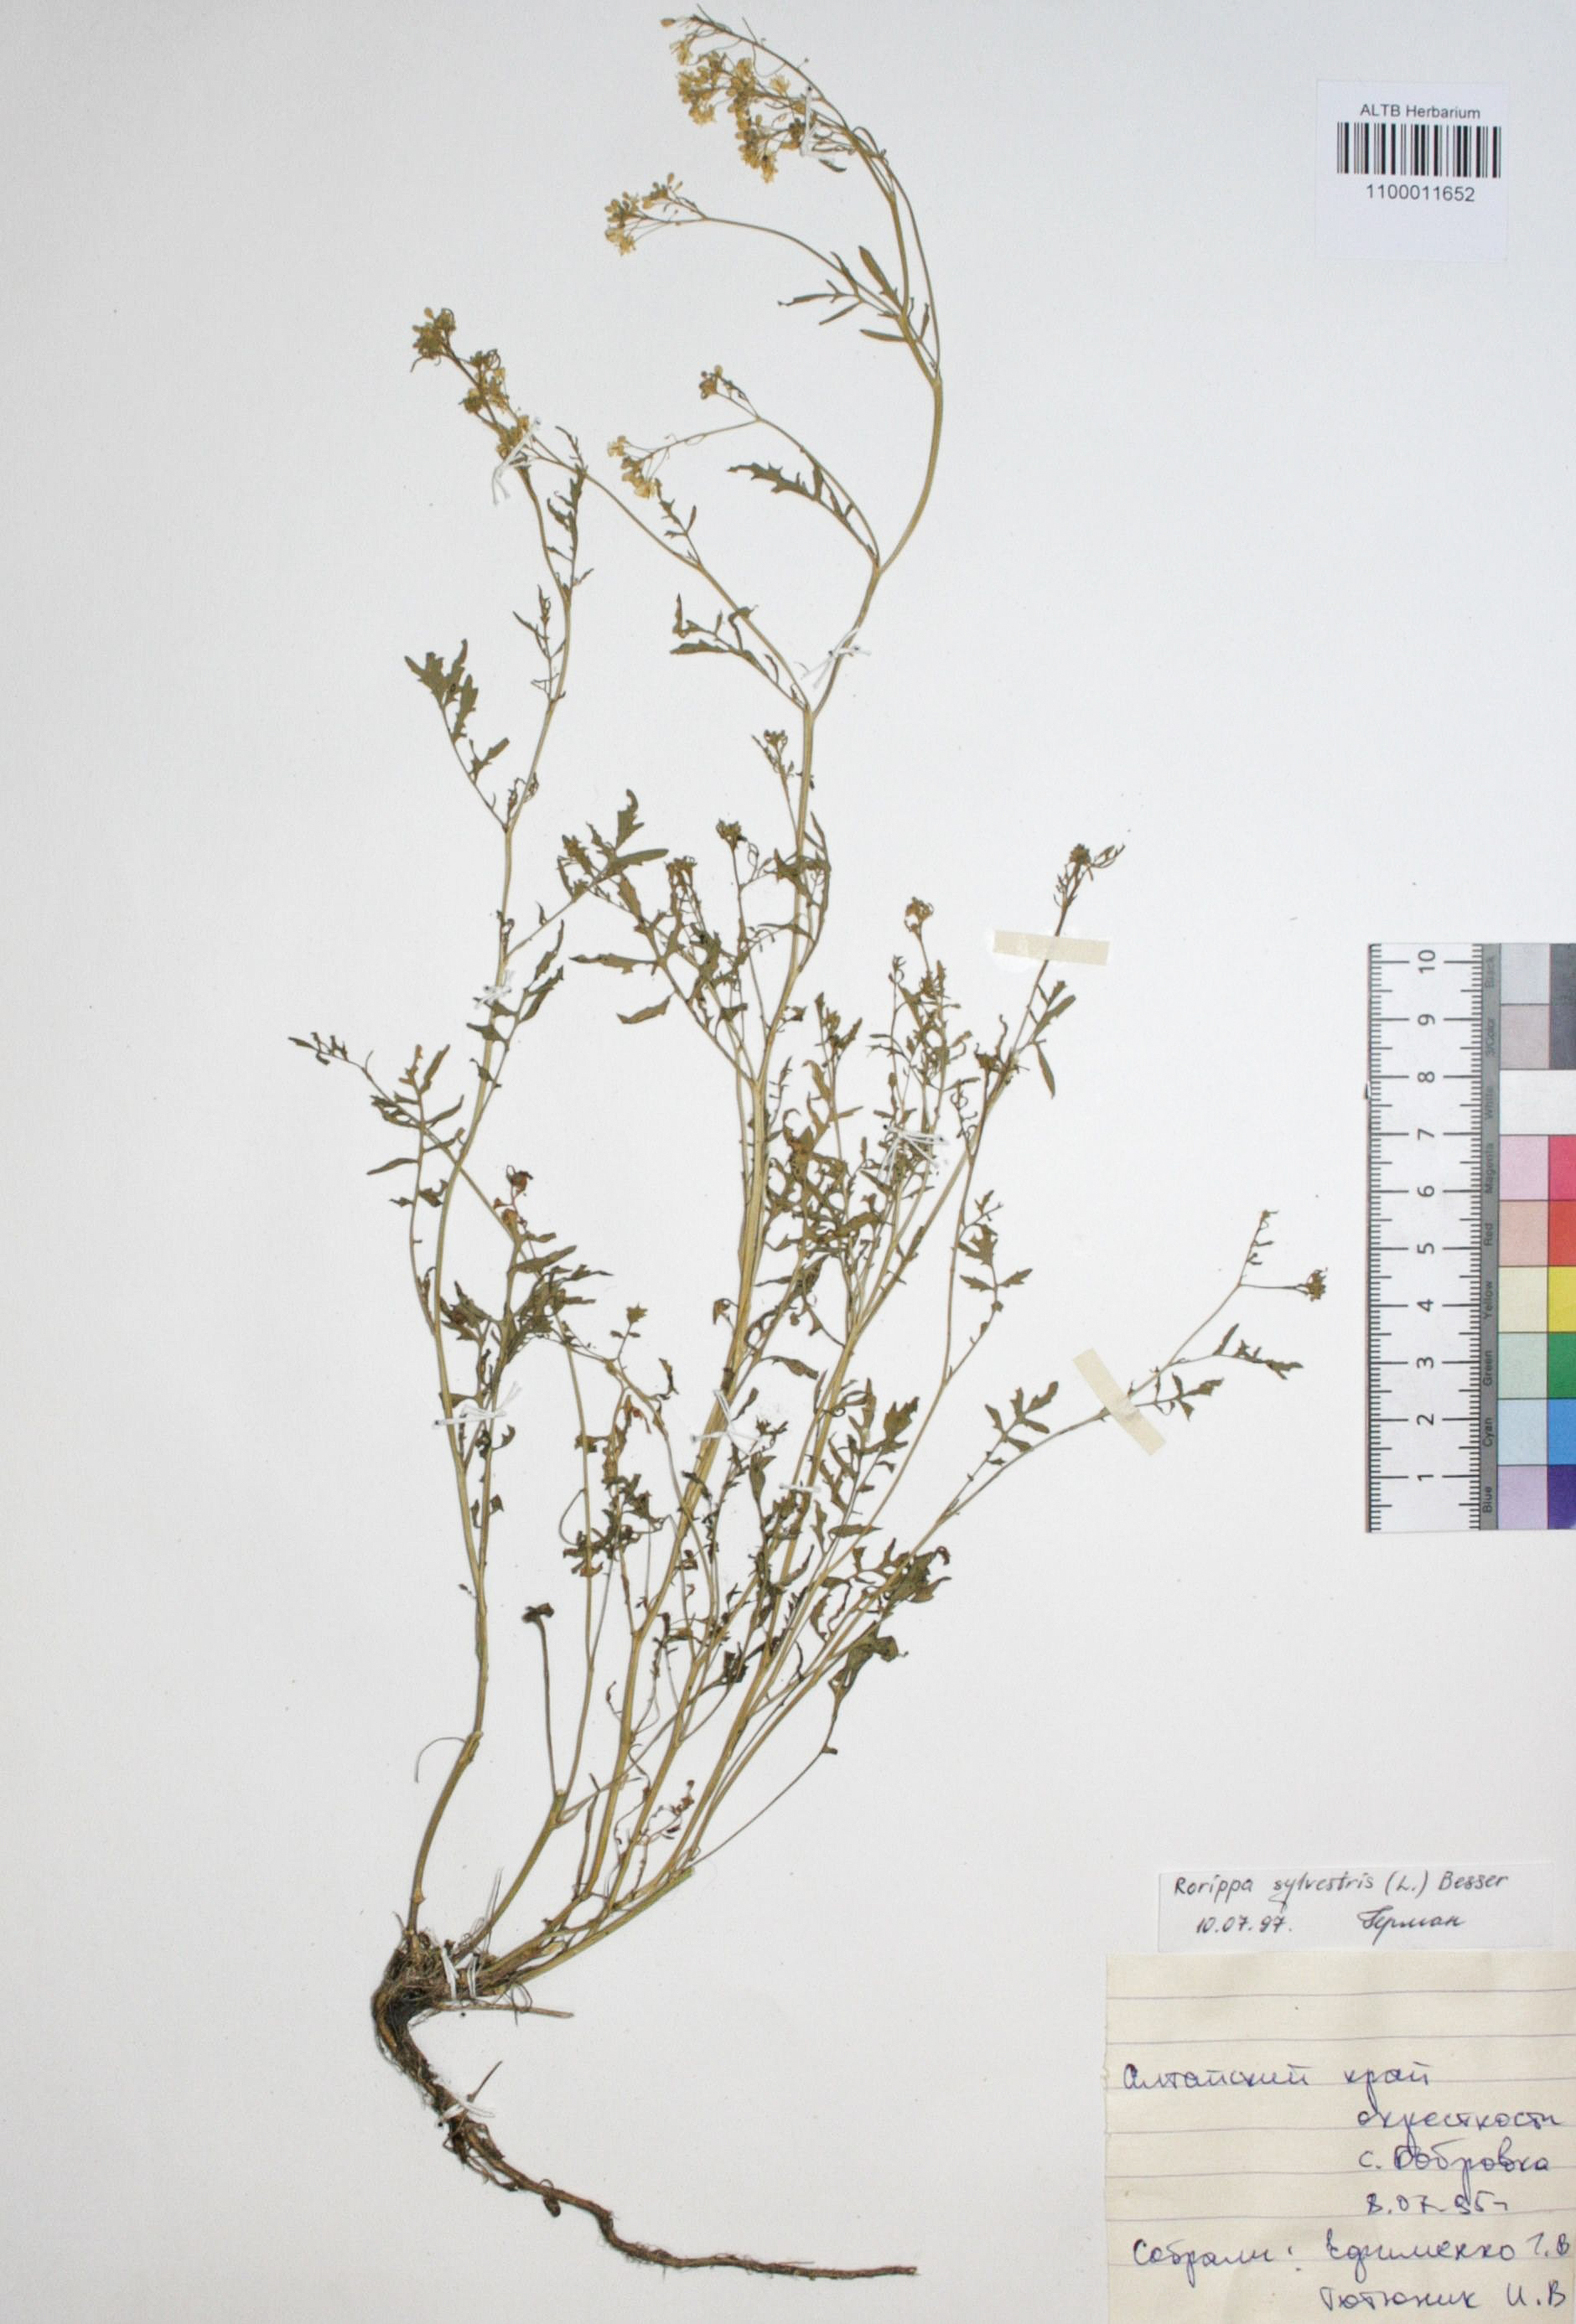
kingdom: Plantae
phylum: Tracheophyta
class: Magnoliopsida
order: Brassicales
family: Brassicaceae
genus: Rorippa
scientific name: Rorippa sylvestris
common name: Creeping yellowcress
